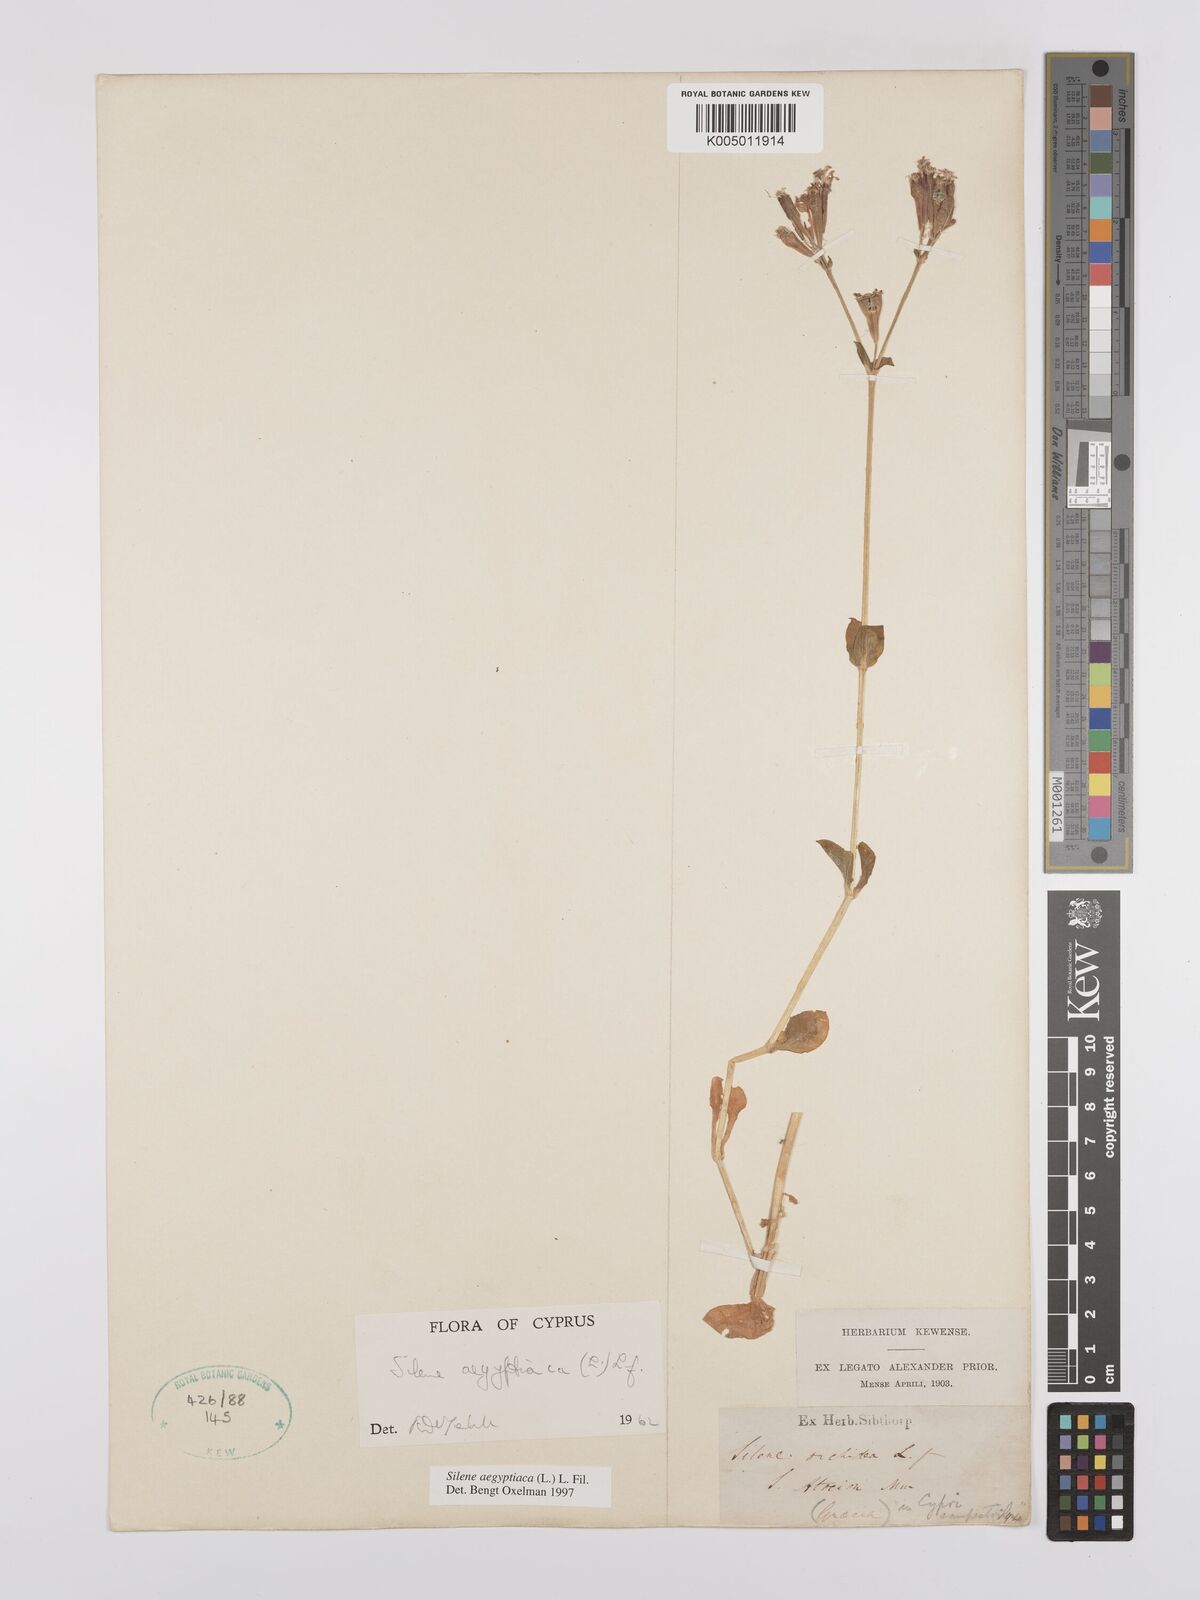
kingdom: Plantae
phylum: Tracheophyta
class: Magnoliopsida
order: Caryophyllales
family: Caryophyllaceae
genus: Silene
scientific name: Silene aegyptiaca
